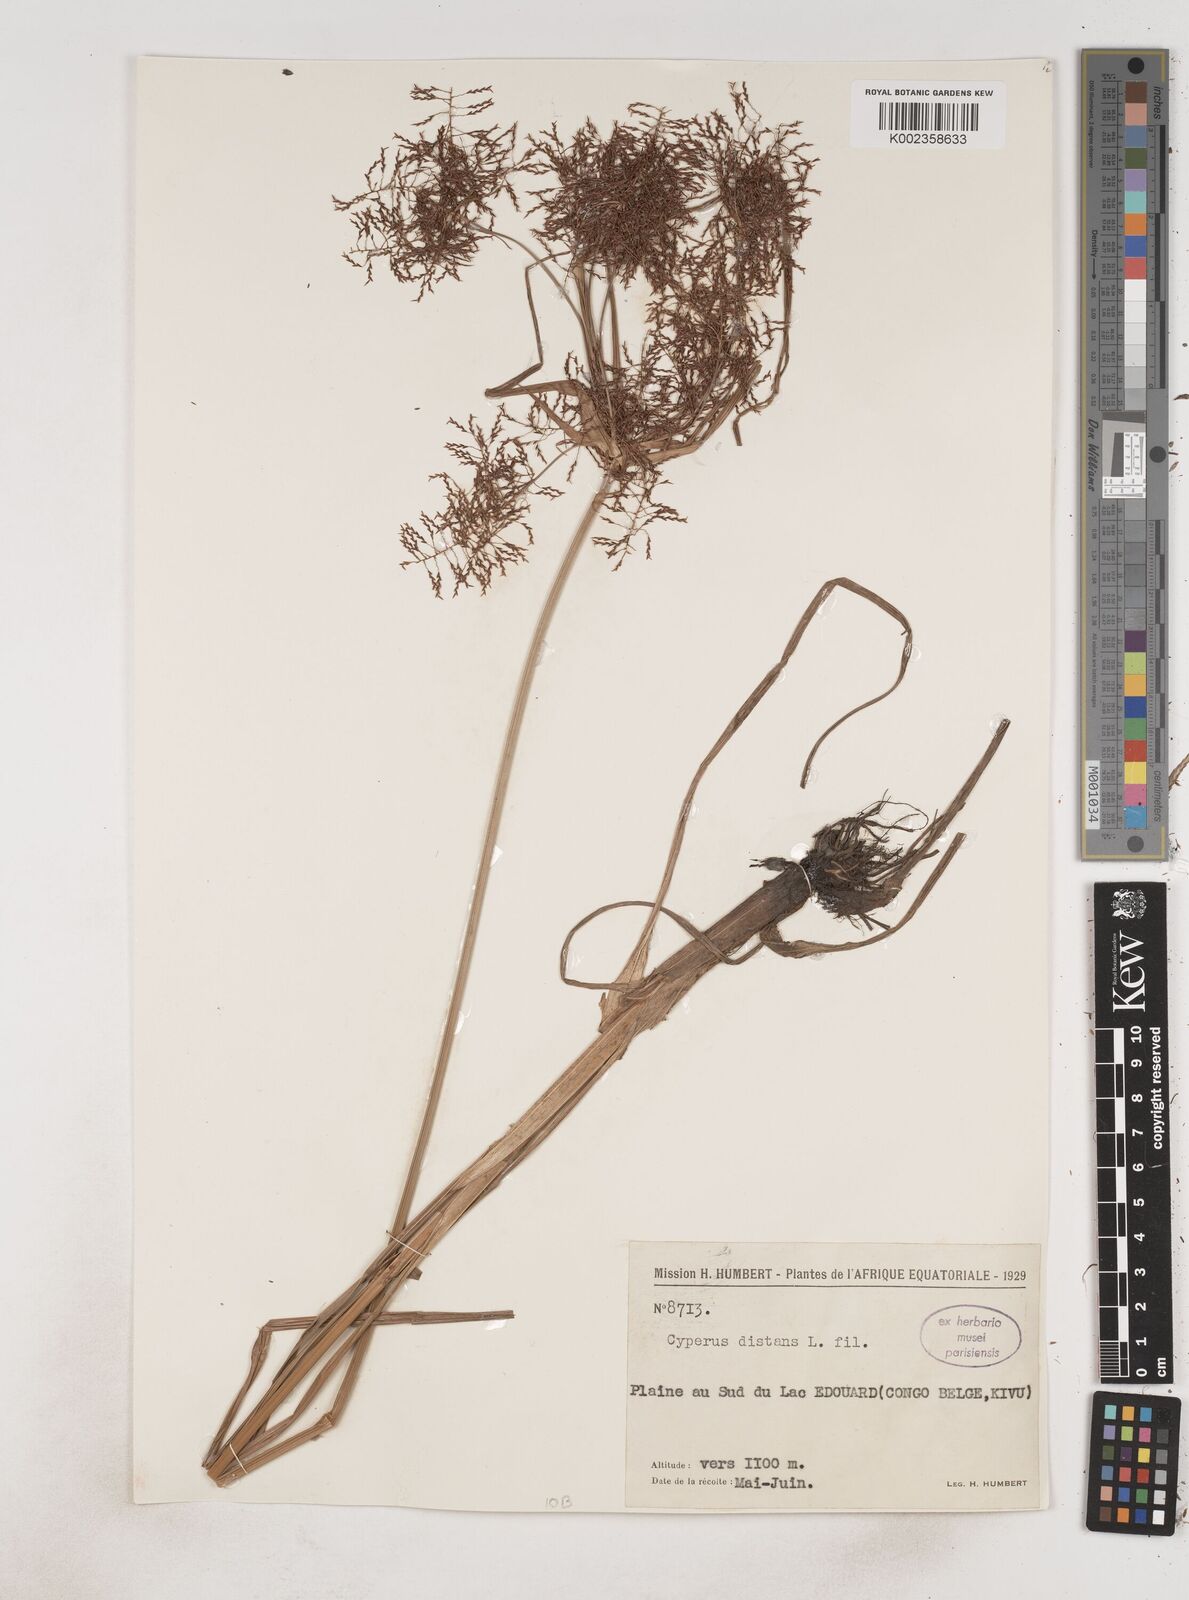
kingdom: Plantae
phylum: Tracheophyta
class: Liliopsida
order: Poales
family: Cyperaceae
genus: Cyperus
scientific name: Cyperus distans
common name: Slender cyperus
